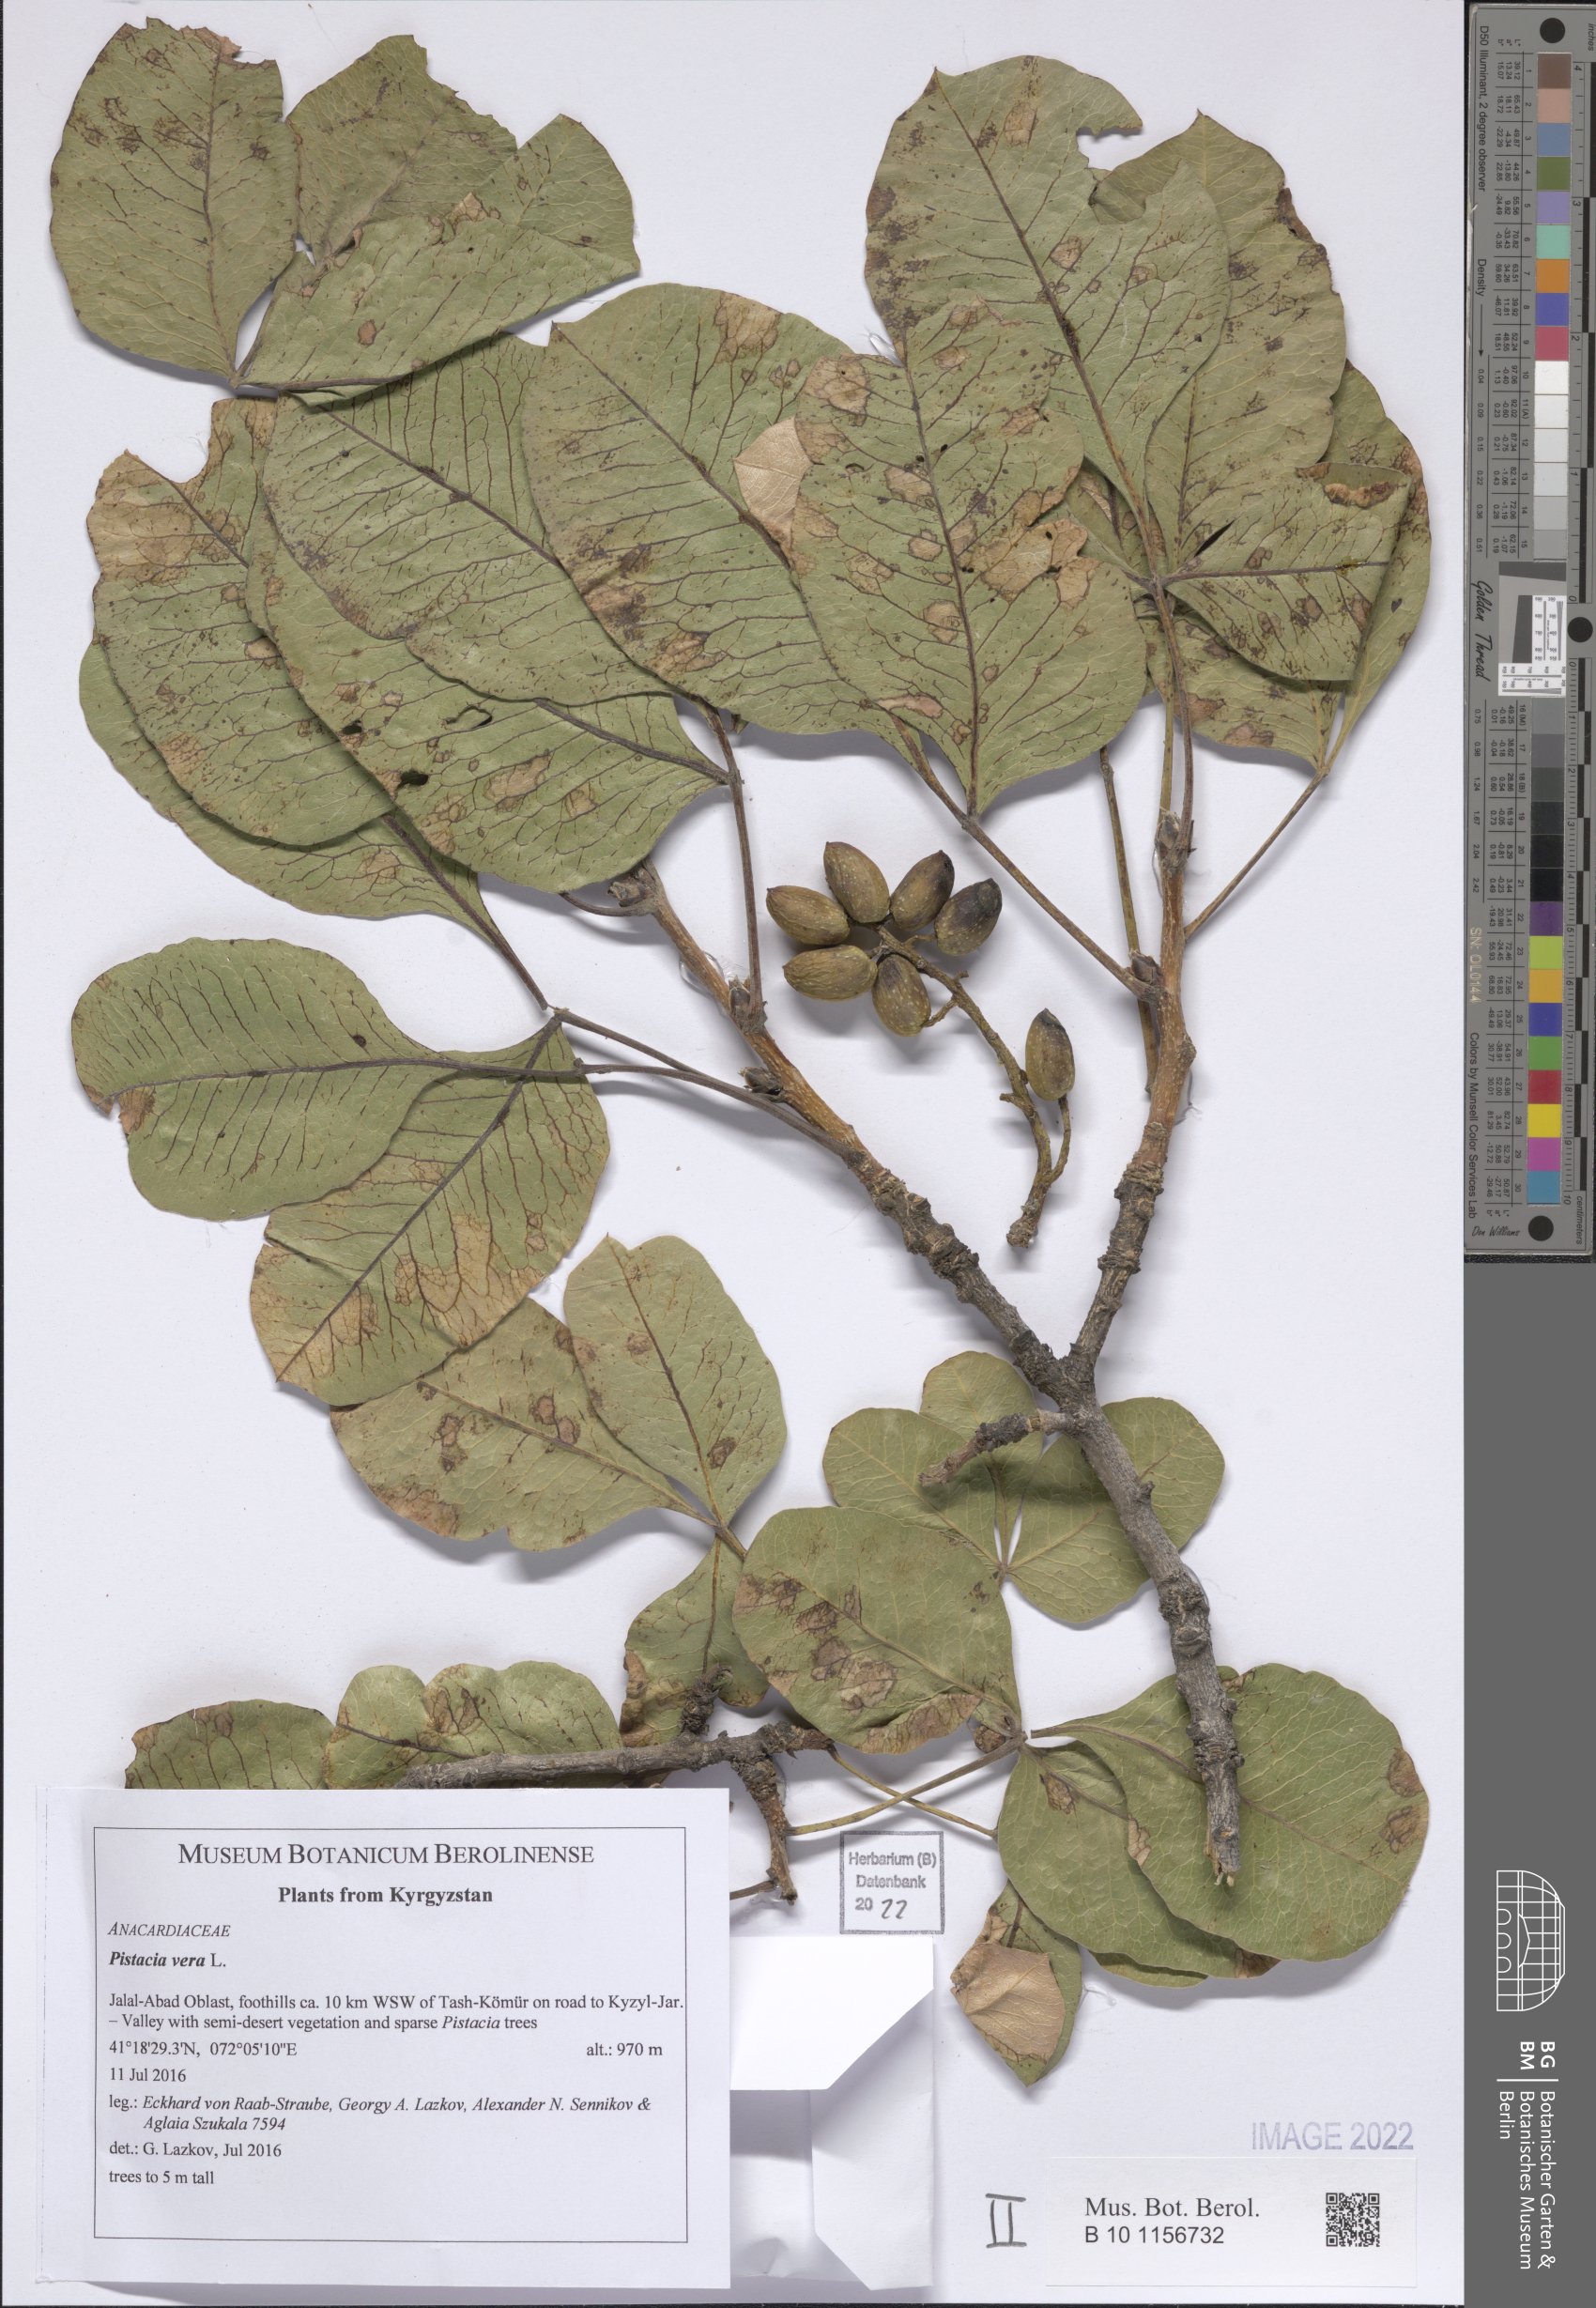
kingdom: Plantae
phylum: Tracheophyta
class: Magnoliopsida
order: Sapindales
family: Anacardiaceae
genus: Pistacia
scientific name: Pistacia vera
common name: Pistachio
